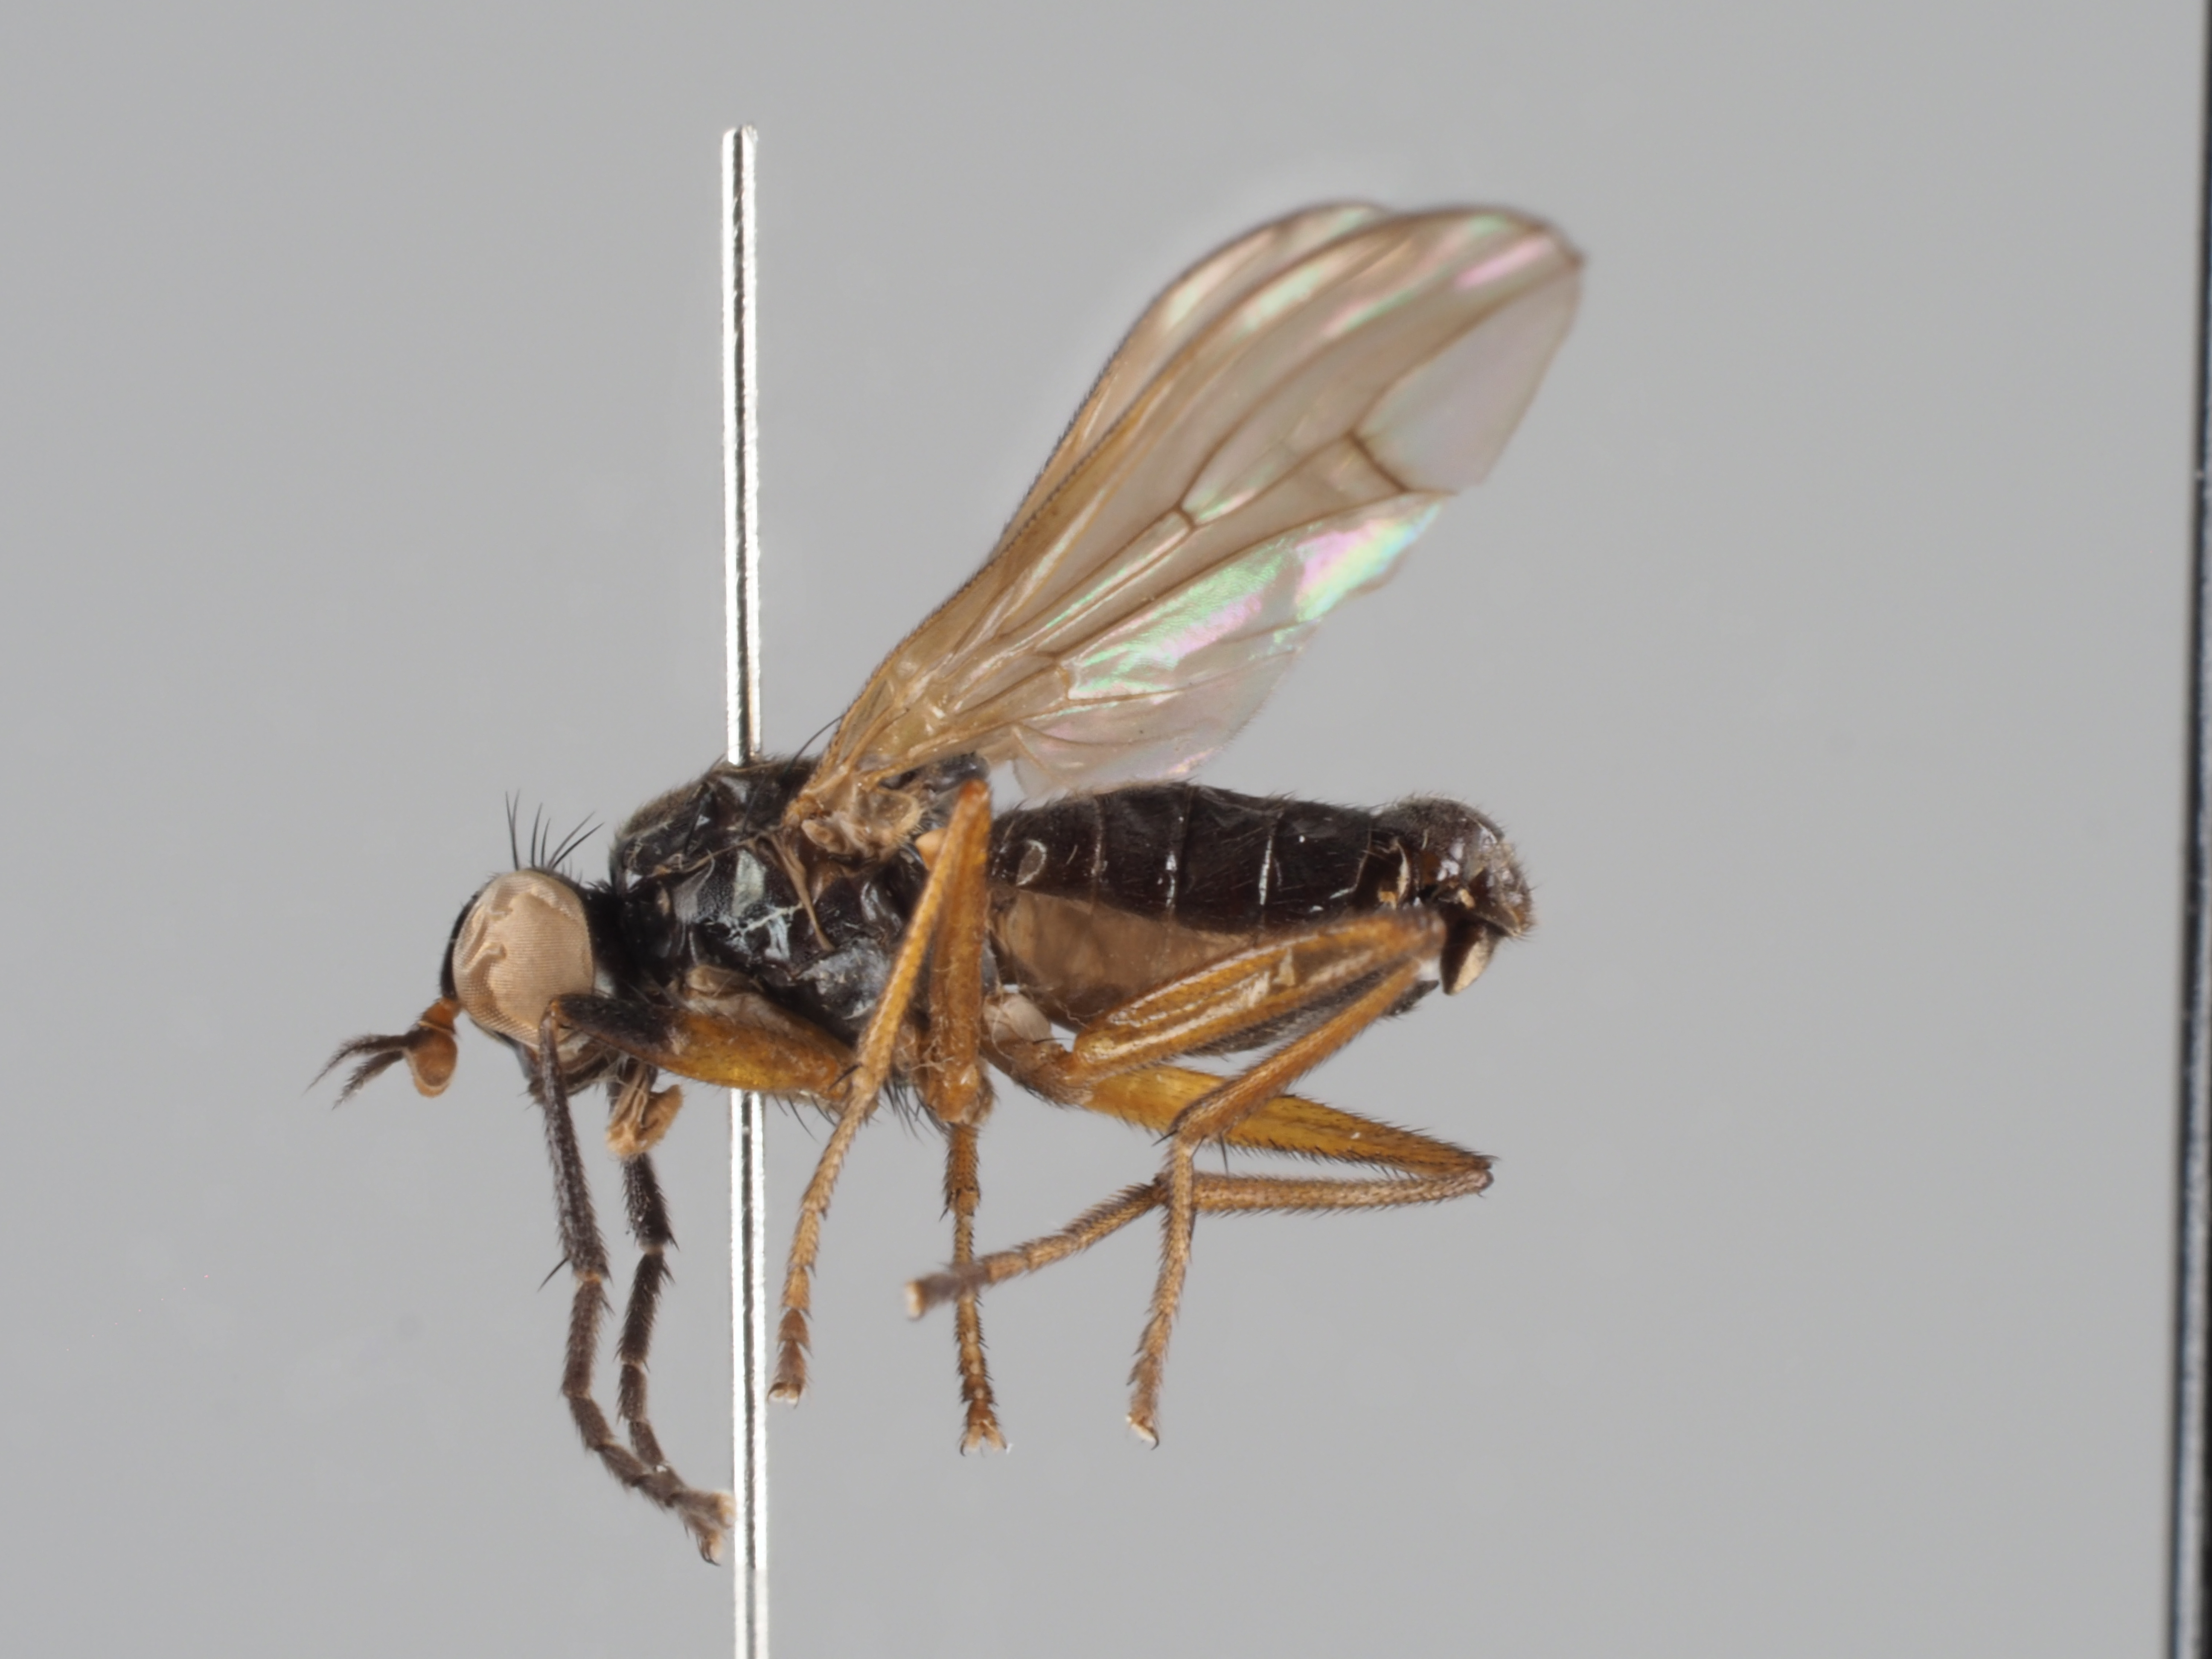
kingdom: Animalia
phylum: Arthropoda
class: Insecta
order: Diptera
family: Sciomyzidae
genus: Anticheta
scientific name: Anticheta atriseta
